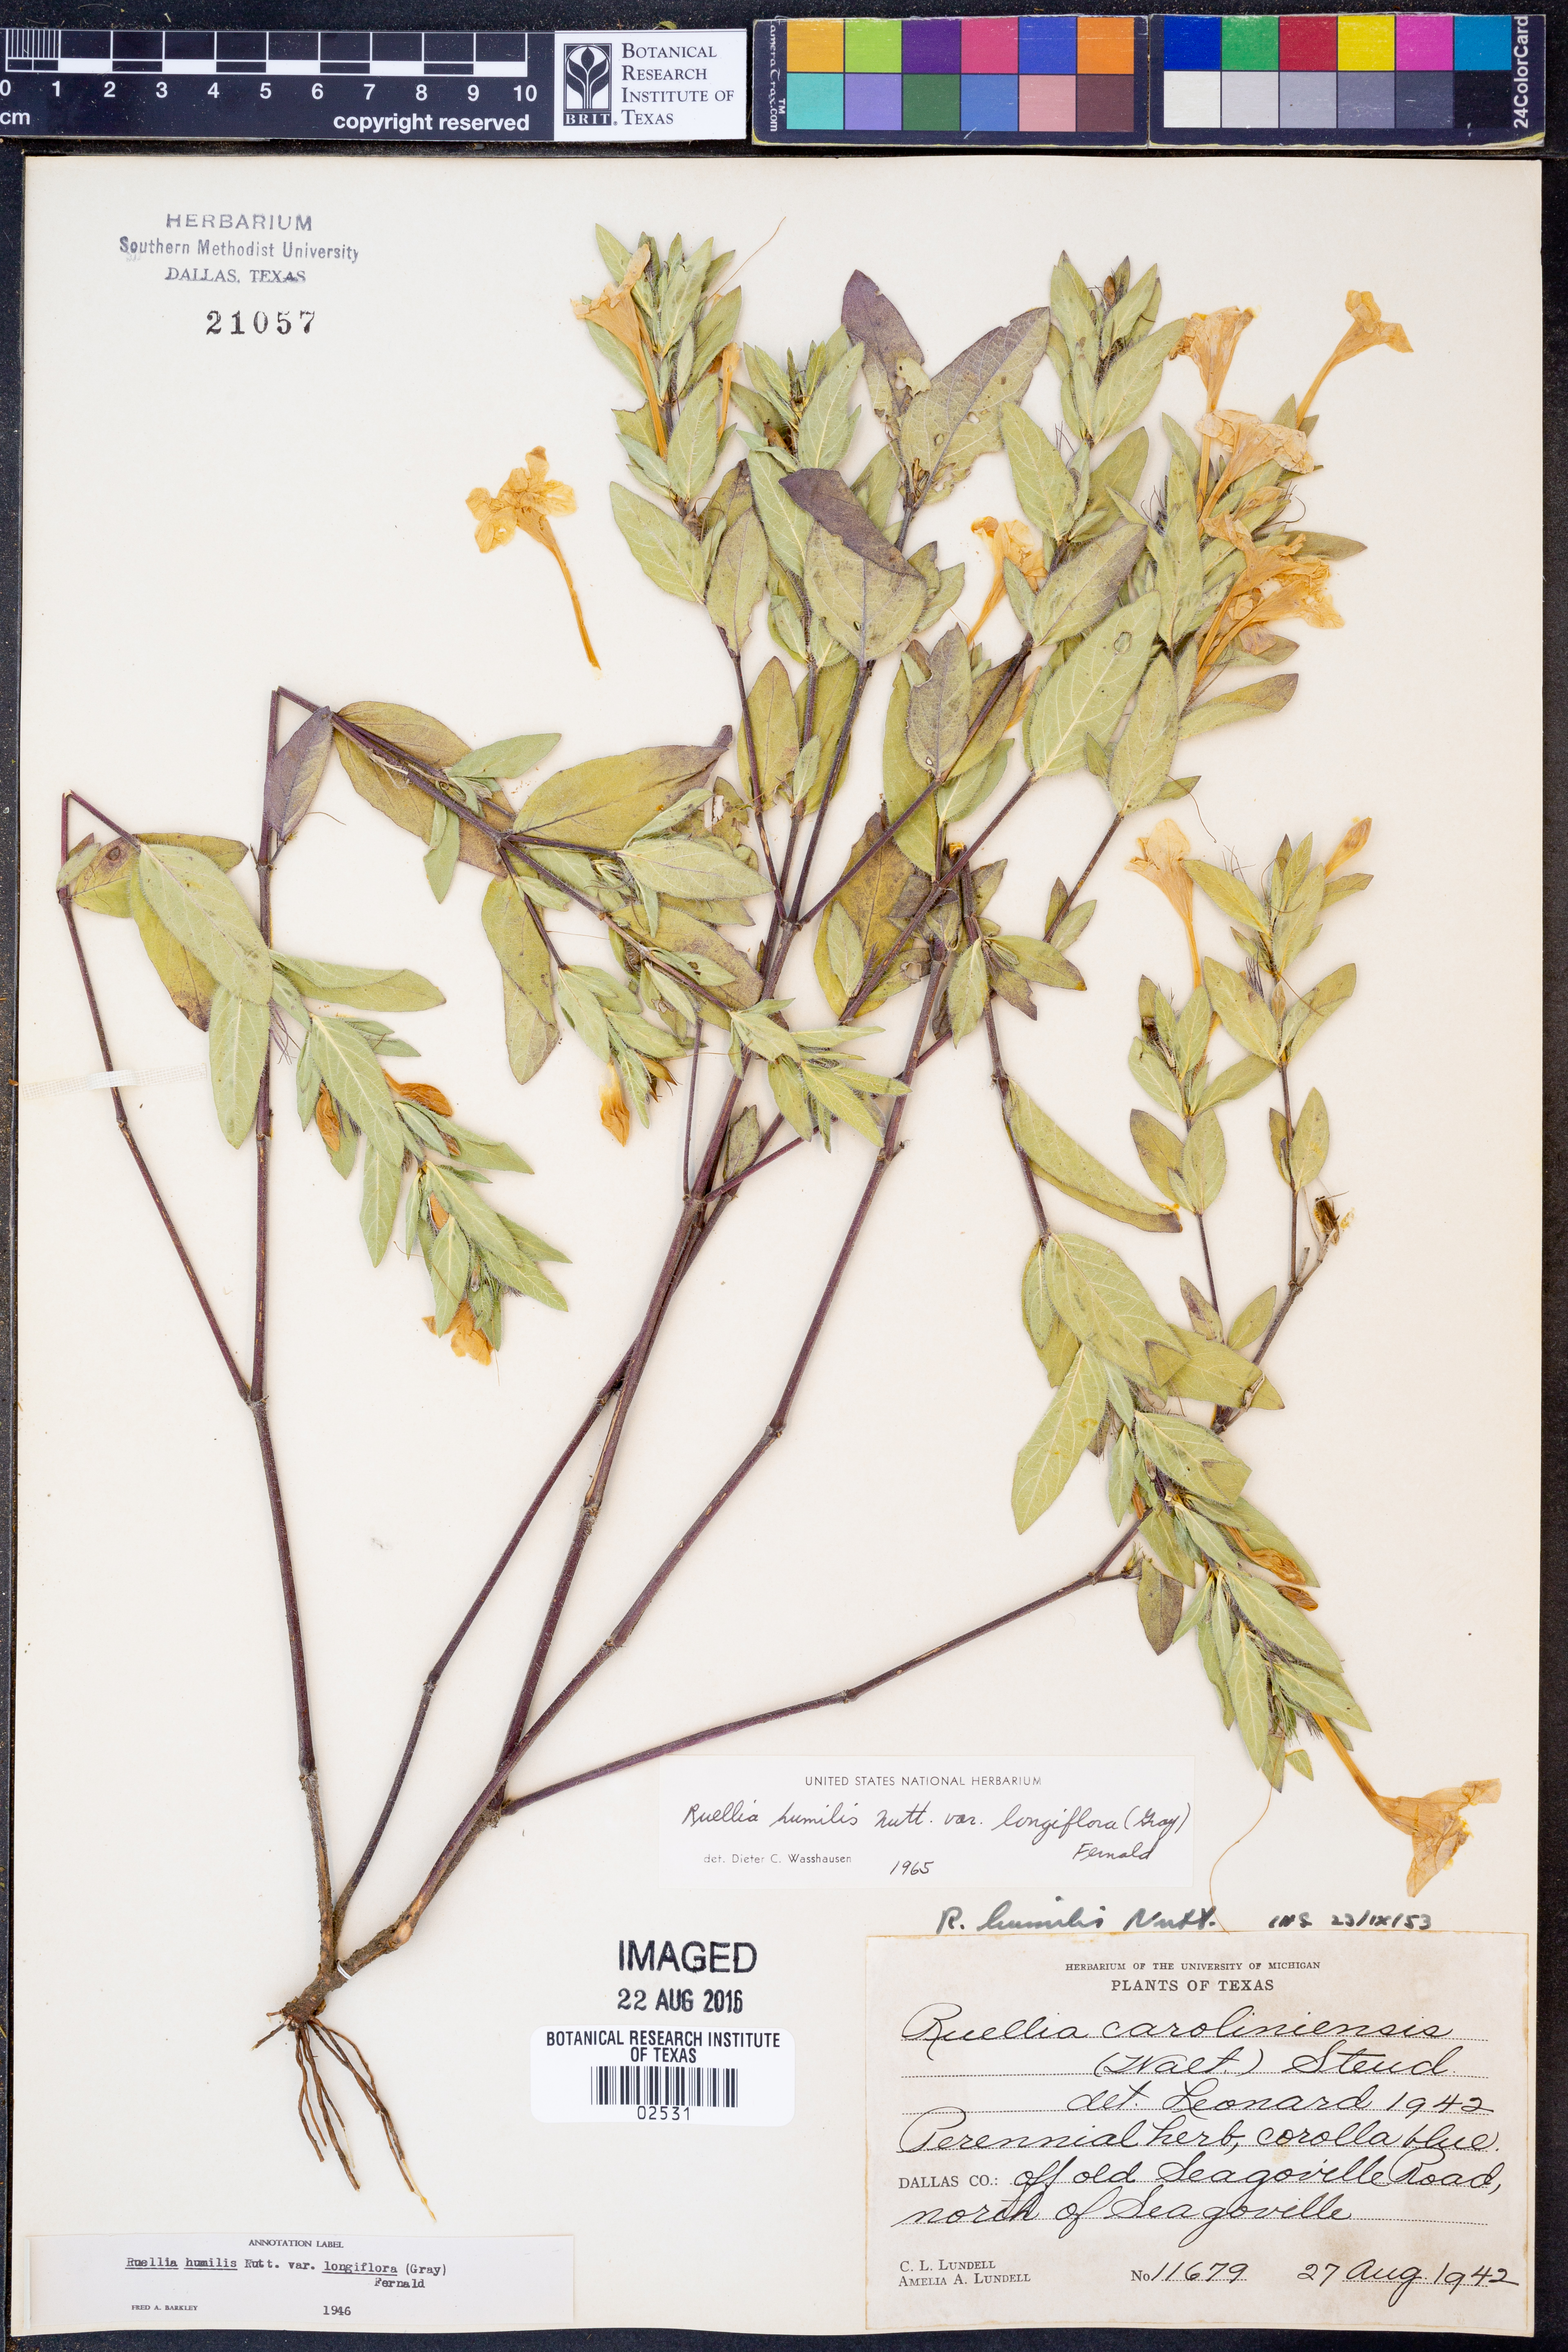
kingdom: Plantae
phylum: Tracheophyta
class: Magnoliopsida
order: Lamiales
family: Acanthaceae
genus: Ruellia
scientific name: Ruellia humilis
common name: Fringe-leaf ruellia
